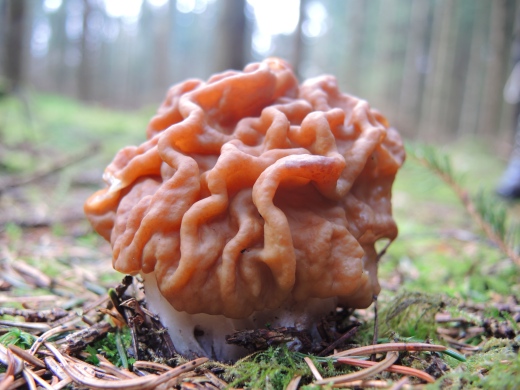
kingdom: Fungi
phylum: Ascomycota
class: Pezizomycetes
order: Pezizales
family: Discinaceae
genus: Gyromitra
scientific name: Gyromitra gigas
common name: kæmpe-stenmorkel
